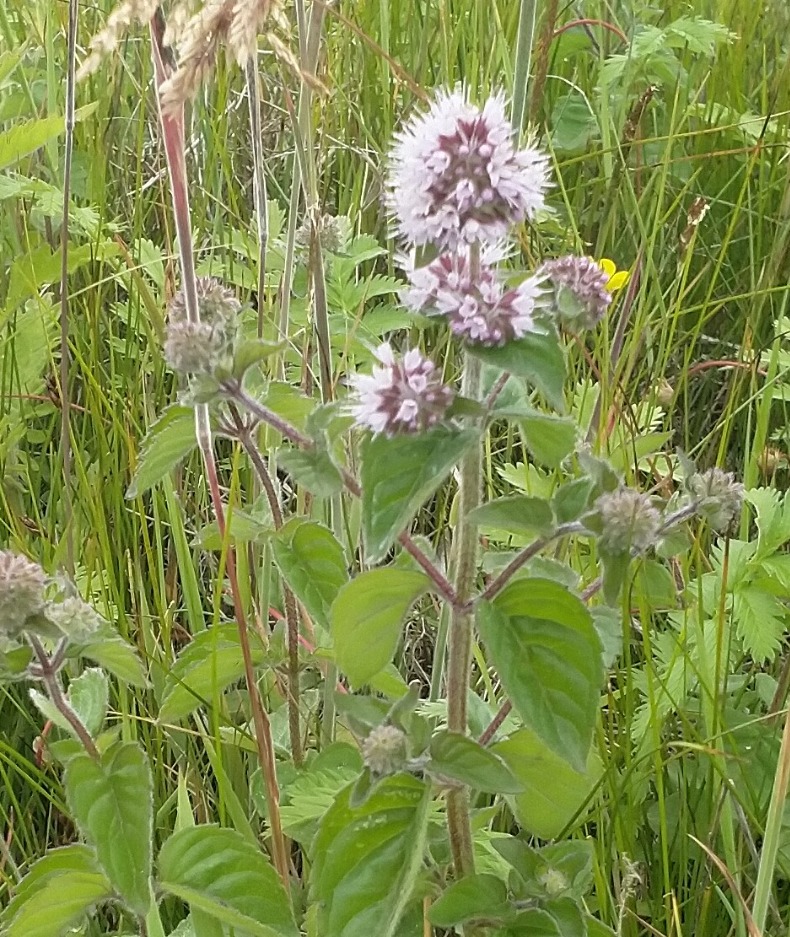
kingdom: Plantae
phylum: Tracheophyta
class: Magnoliopsida
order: Lamiales
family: Lamiaceae
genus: Mentha
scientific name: Mentha aquatica
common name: Vand-mynte
